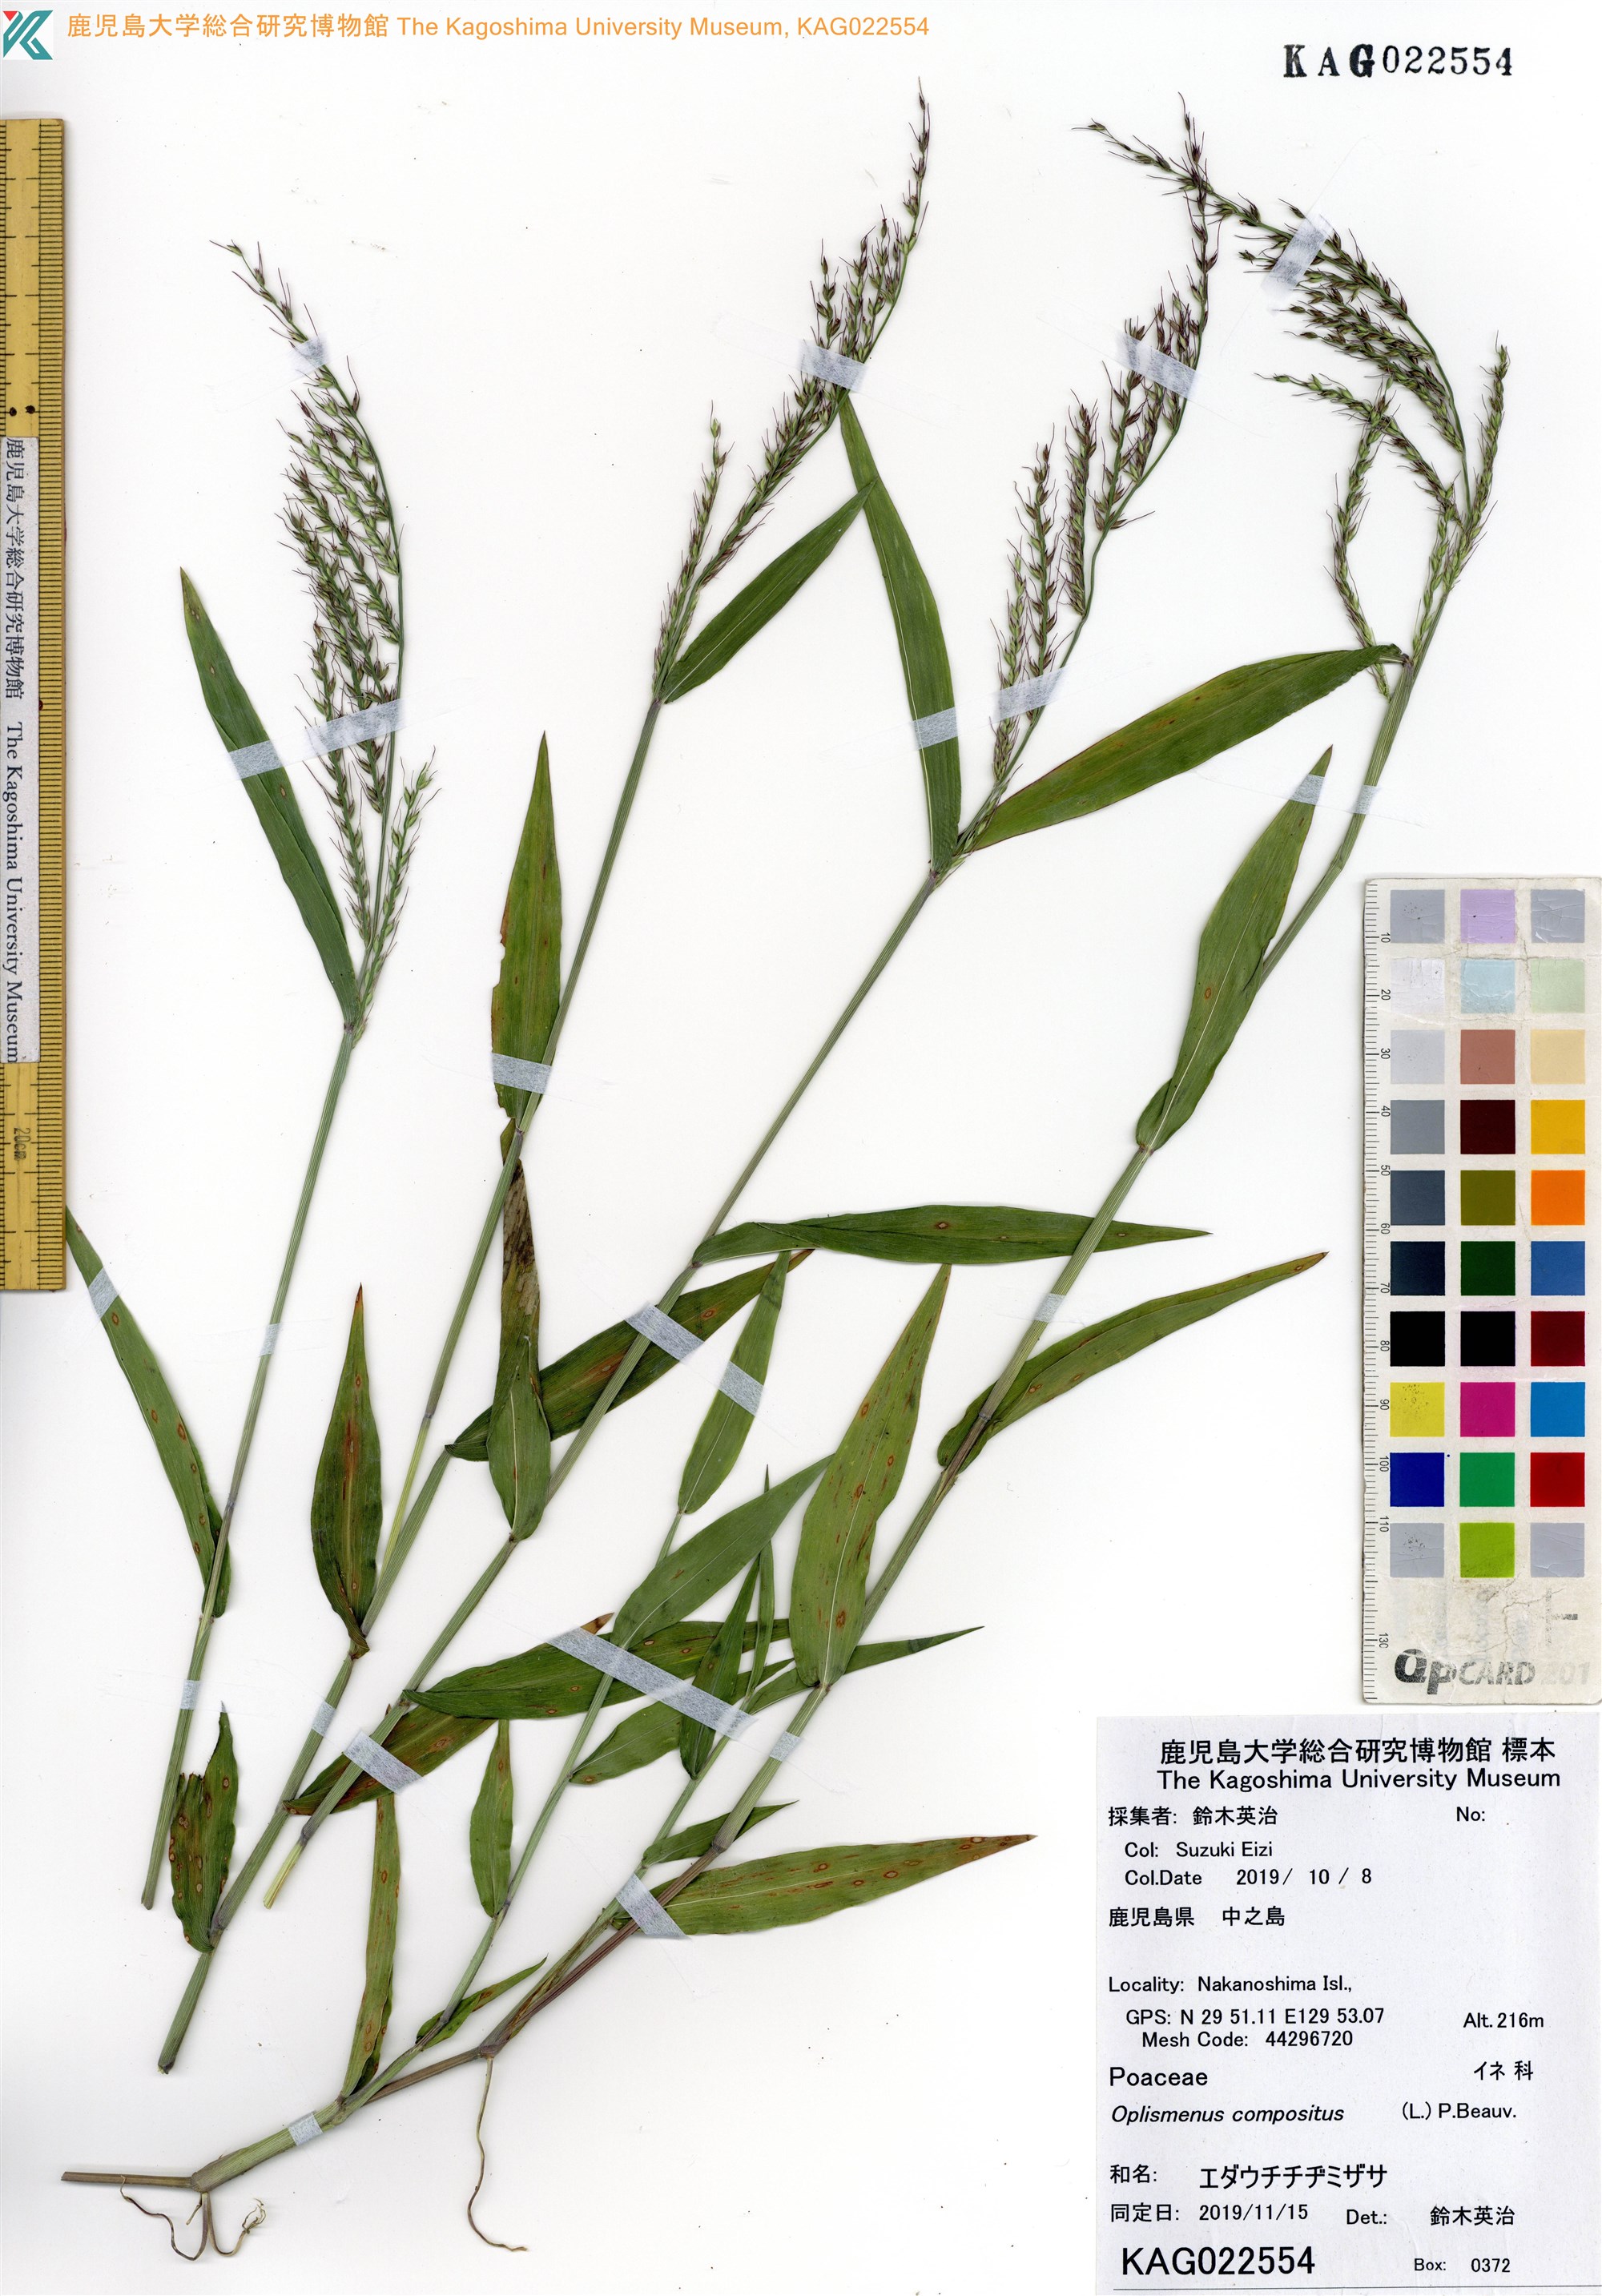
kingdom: Plantae
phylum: Tracheophyta
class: Liliopsida
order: Poales
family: Poaceae
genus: Oplismenus
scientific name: Oplismenus compositus
